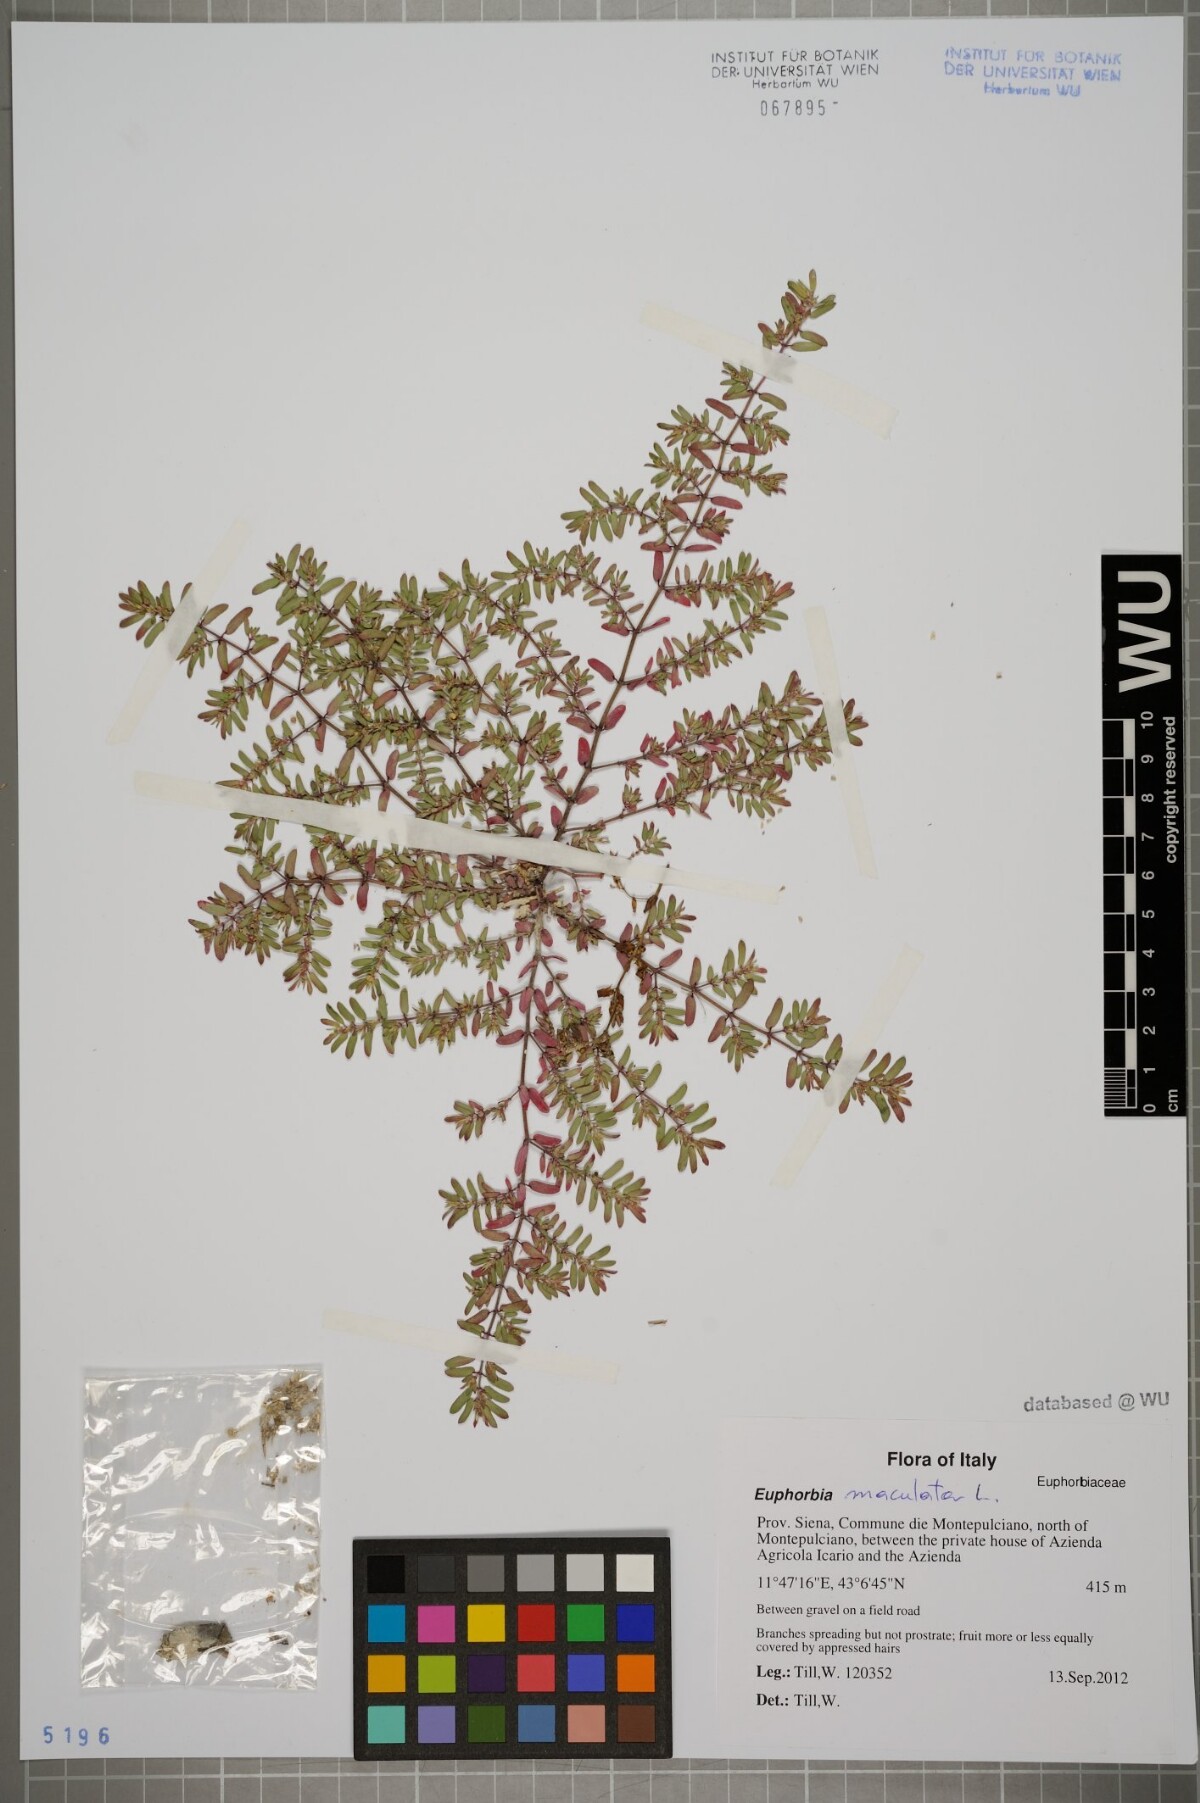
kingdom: Plantae
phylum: Tracheophyta
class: Magnoliopsida
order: Malpighiales
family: Euphorbiaceae
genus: Euphorbia
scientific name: Euphorbia maculata
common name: Spotted spurge
